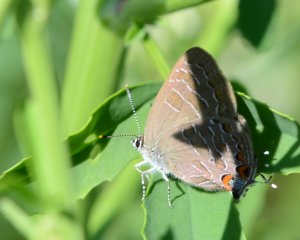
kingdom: Animalia
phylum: Arthropoda
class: Insecta
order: Lepidoptera
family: Lycaenidae
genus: Satyrium
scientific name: Satyrium liparops
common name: Striped Hairstreak
